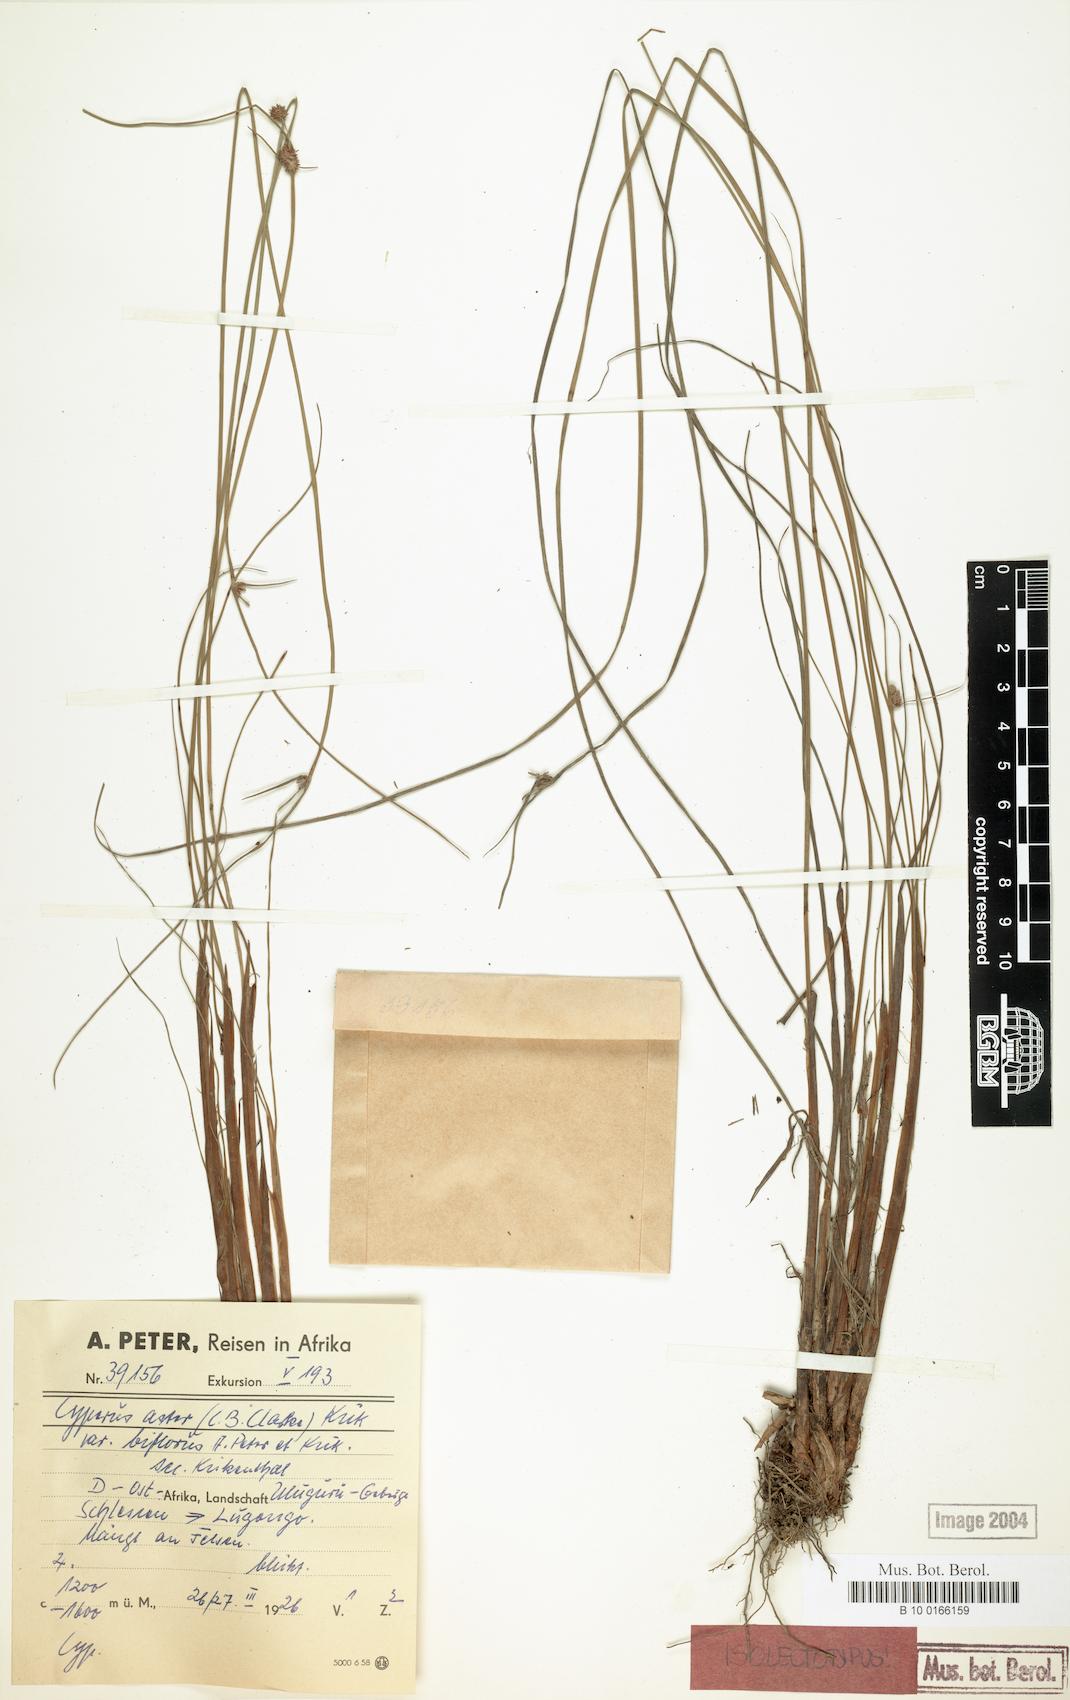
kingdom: Plantae
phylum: Tracheophyta
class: Liliopsida
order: Poales
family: Cyperaceae
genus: Cyperus
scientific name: Cyperus aster
